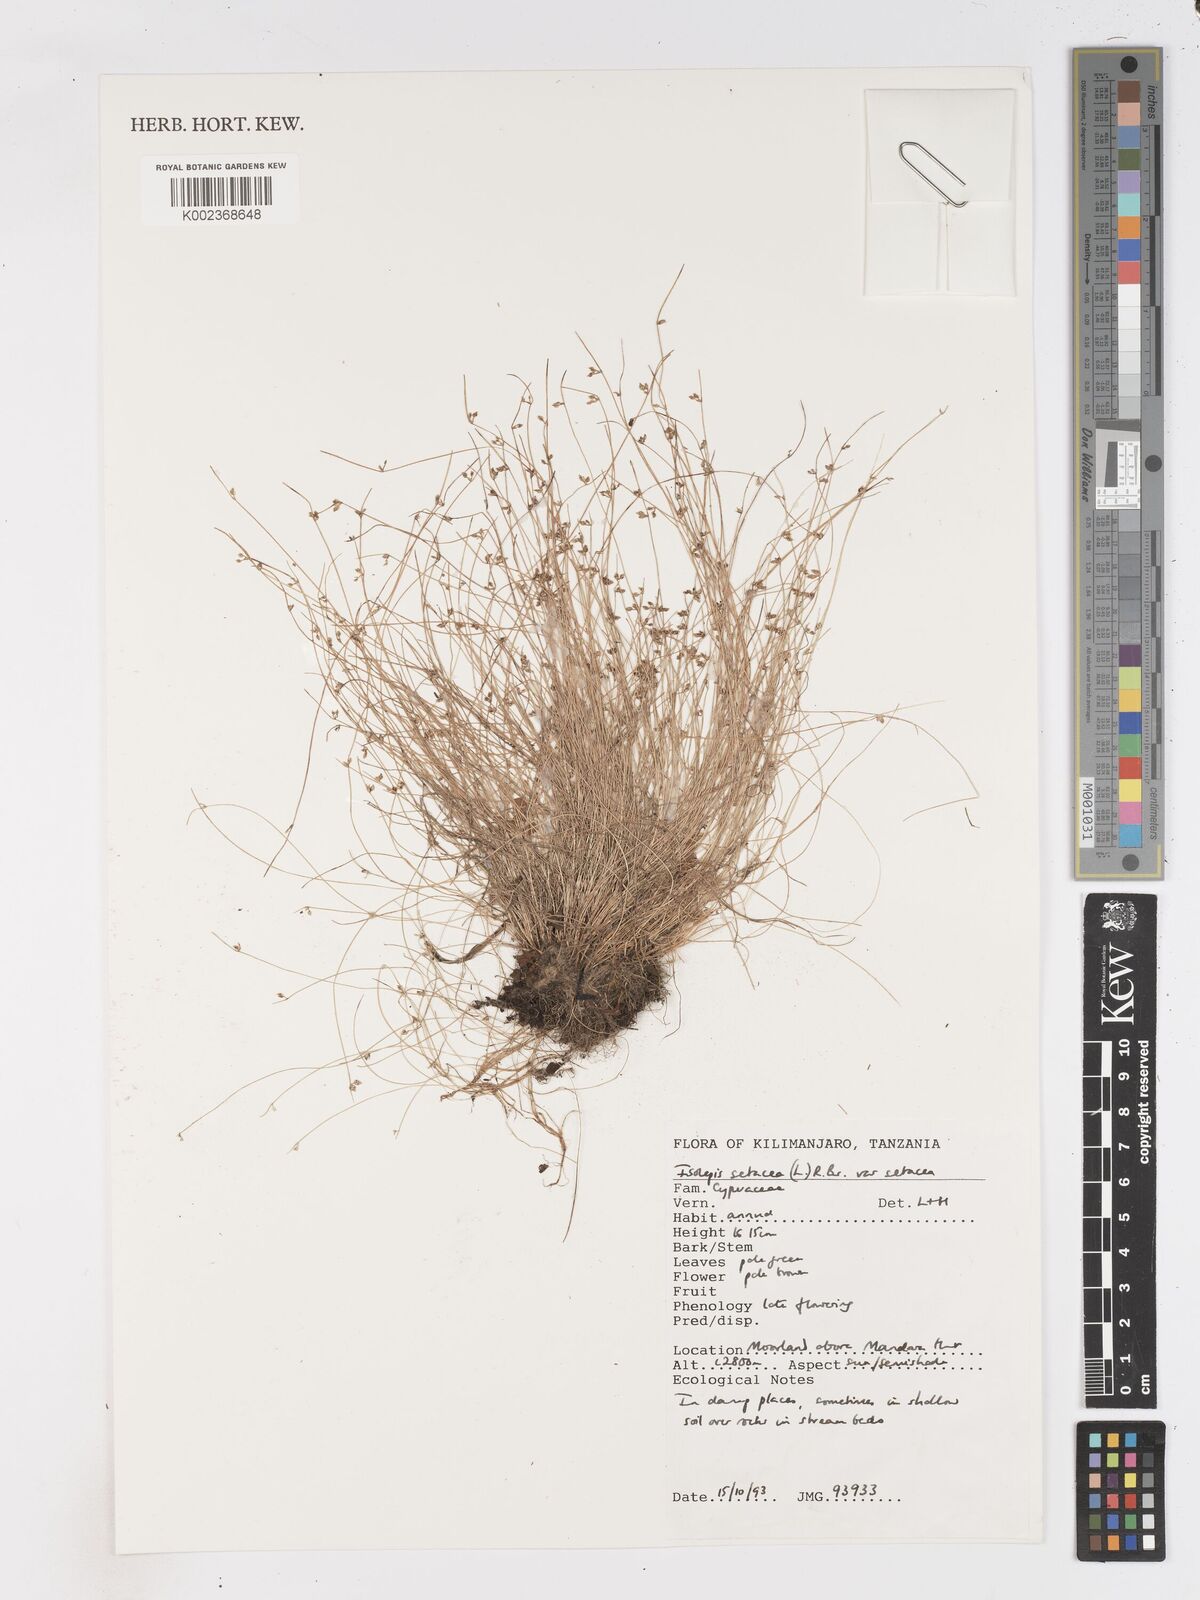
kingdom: Plantae
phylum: Tracheophyta
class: Liliopsida
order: Poales
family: Cyperaceae
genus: Isolepis
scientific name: Isolepis setacea
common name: Bristle club-rush
